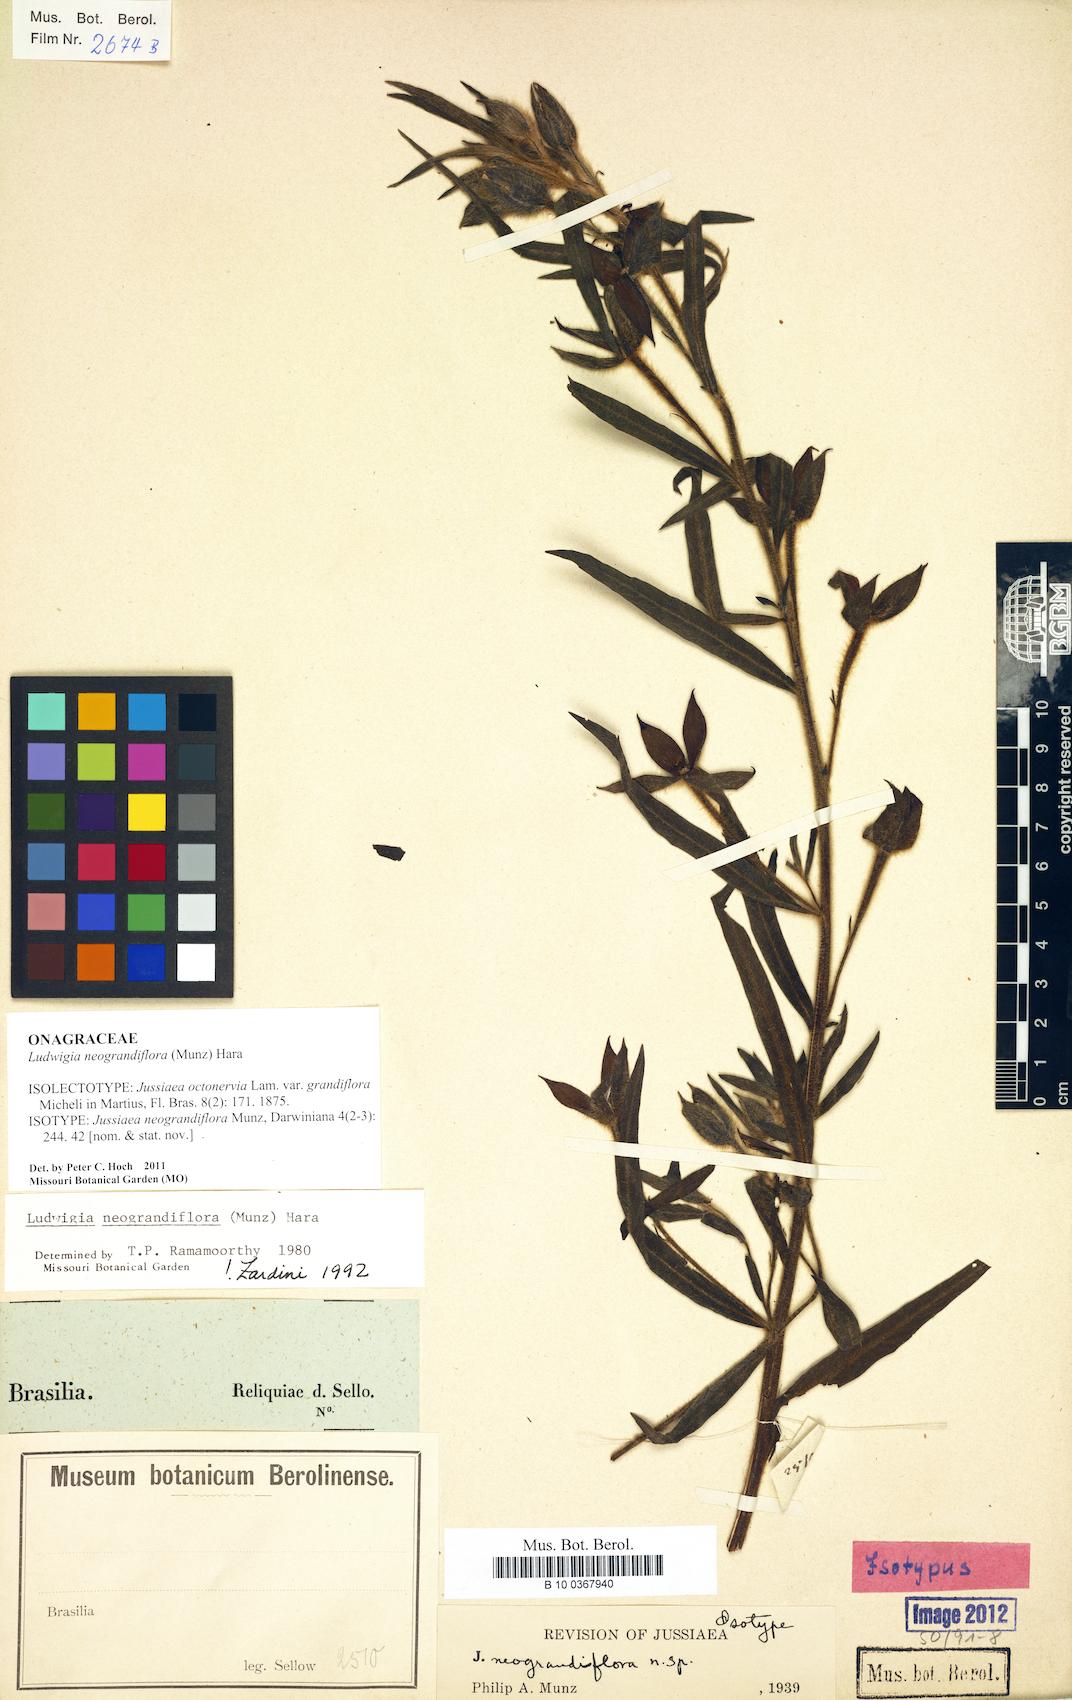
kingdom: Plantae
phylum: Tracheophyta
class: Magnoliopsida
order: Myrtales
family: Onagraceae
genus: Ludwigia
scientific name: Ludwigia neograndiflora
